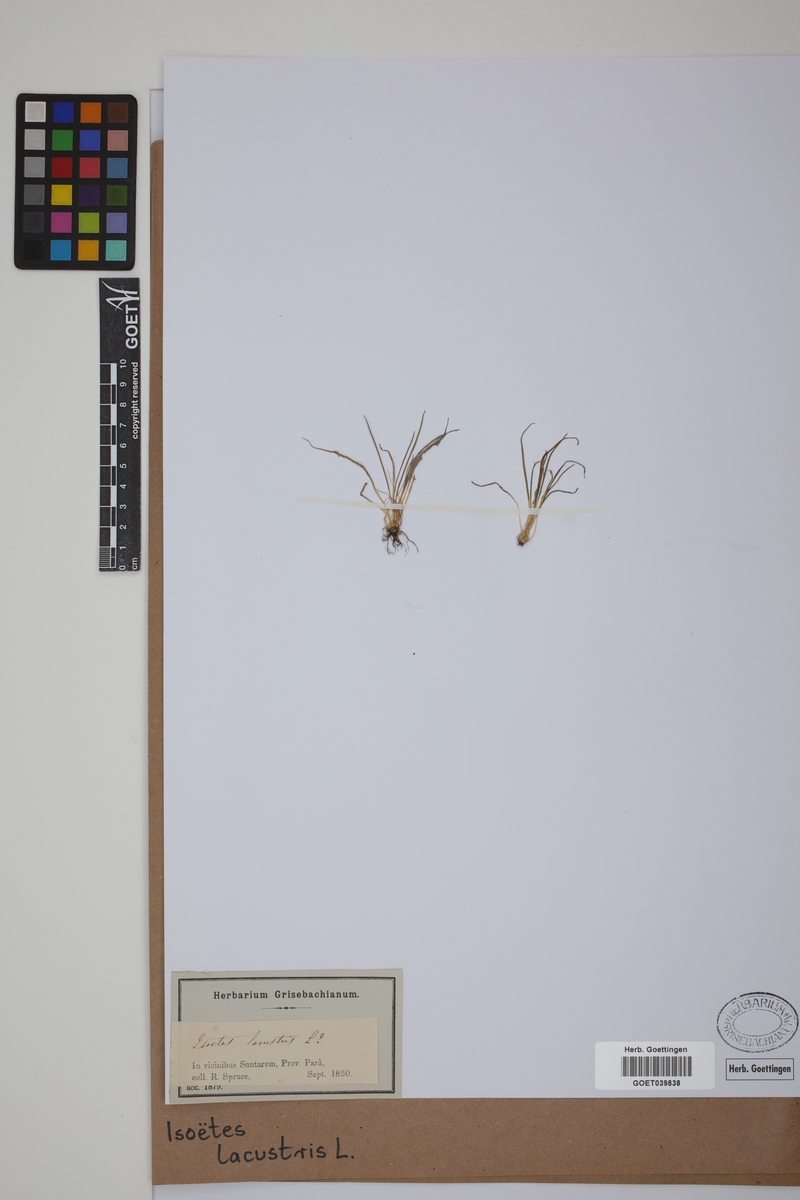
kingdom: Plantae
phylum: Tracheophyta
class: Lycopodiopsida
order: Isoetales
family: Isoetaceae
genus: Isoetes
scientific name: Isoetes lacustris
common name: Common quillwort
